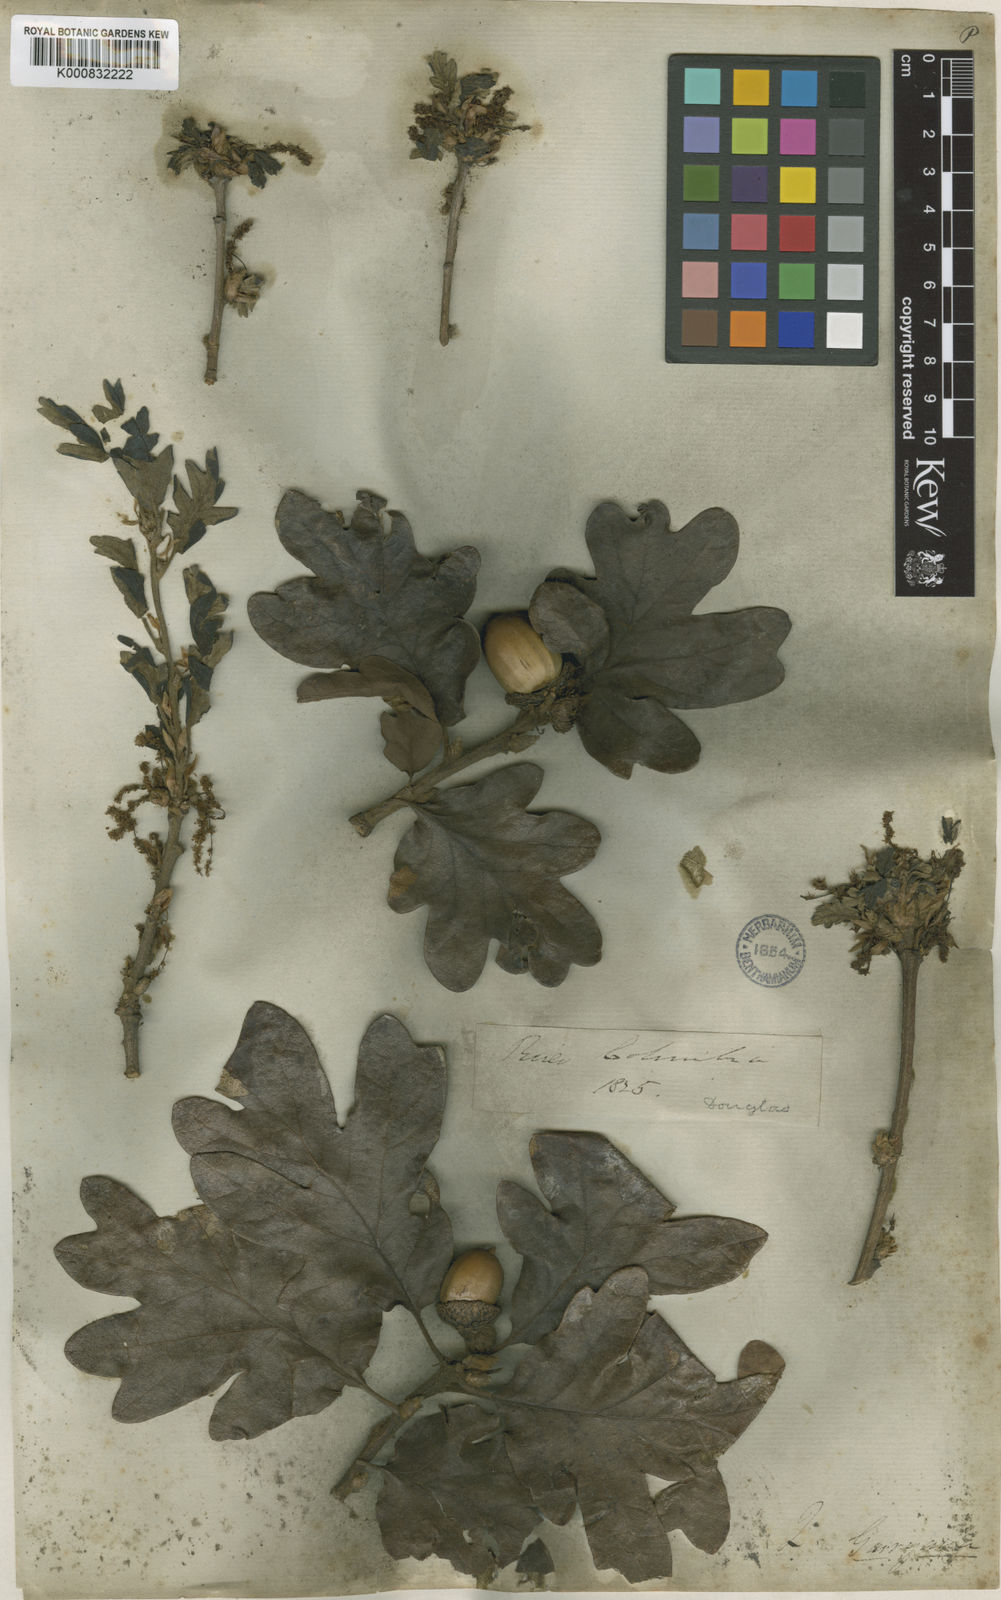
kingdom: Plantae
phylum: Tracheophyta
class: Magnoliopsida
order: Fagales
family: Fagaceae
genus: Quercus
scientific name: Quercus garryana
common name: Garry oak
